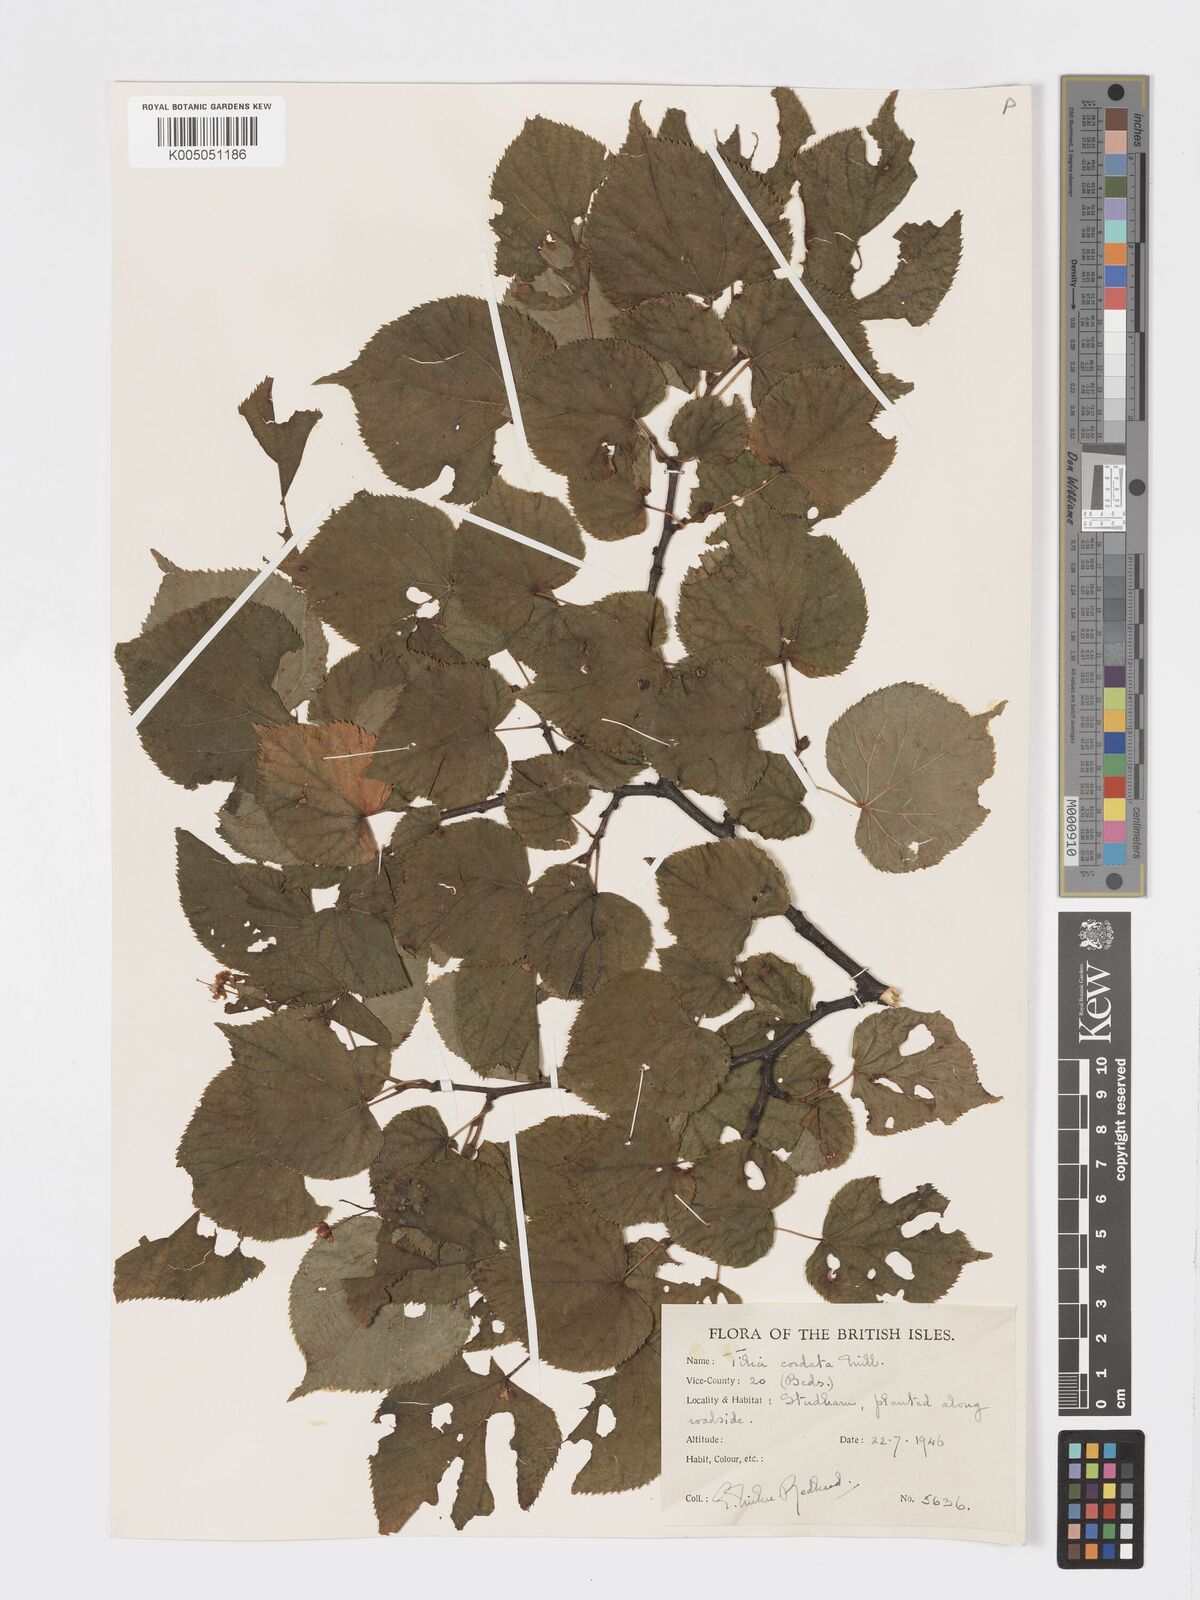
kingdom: Plantae
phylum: Tracheophyta
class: Magnoliopsida
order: Malvales
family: Malvaceae
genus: Tilia
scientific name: Tilia cordata
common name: Small-leaved lime
